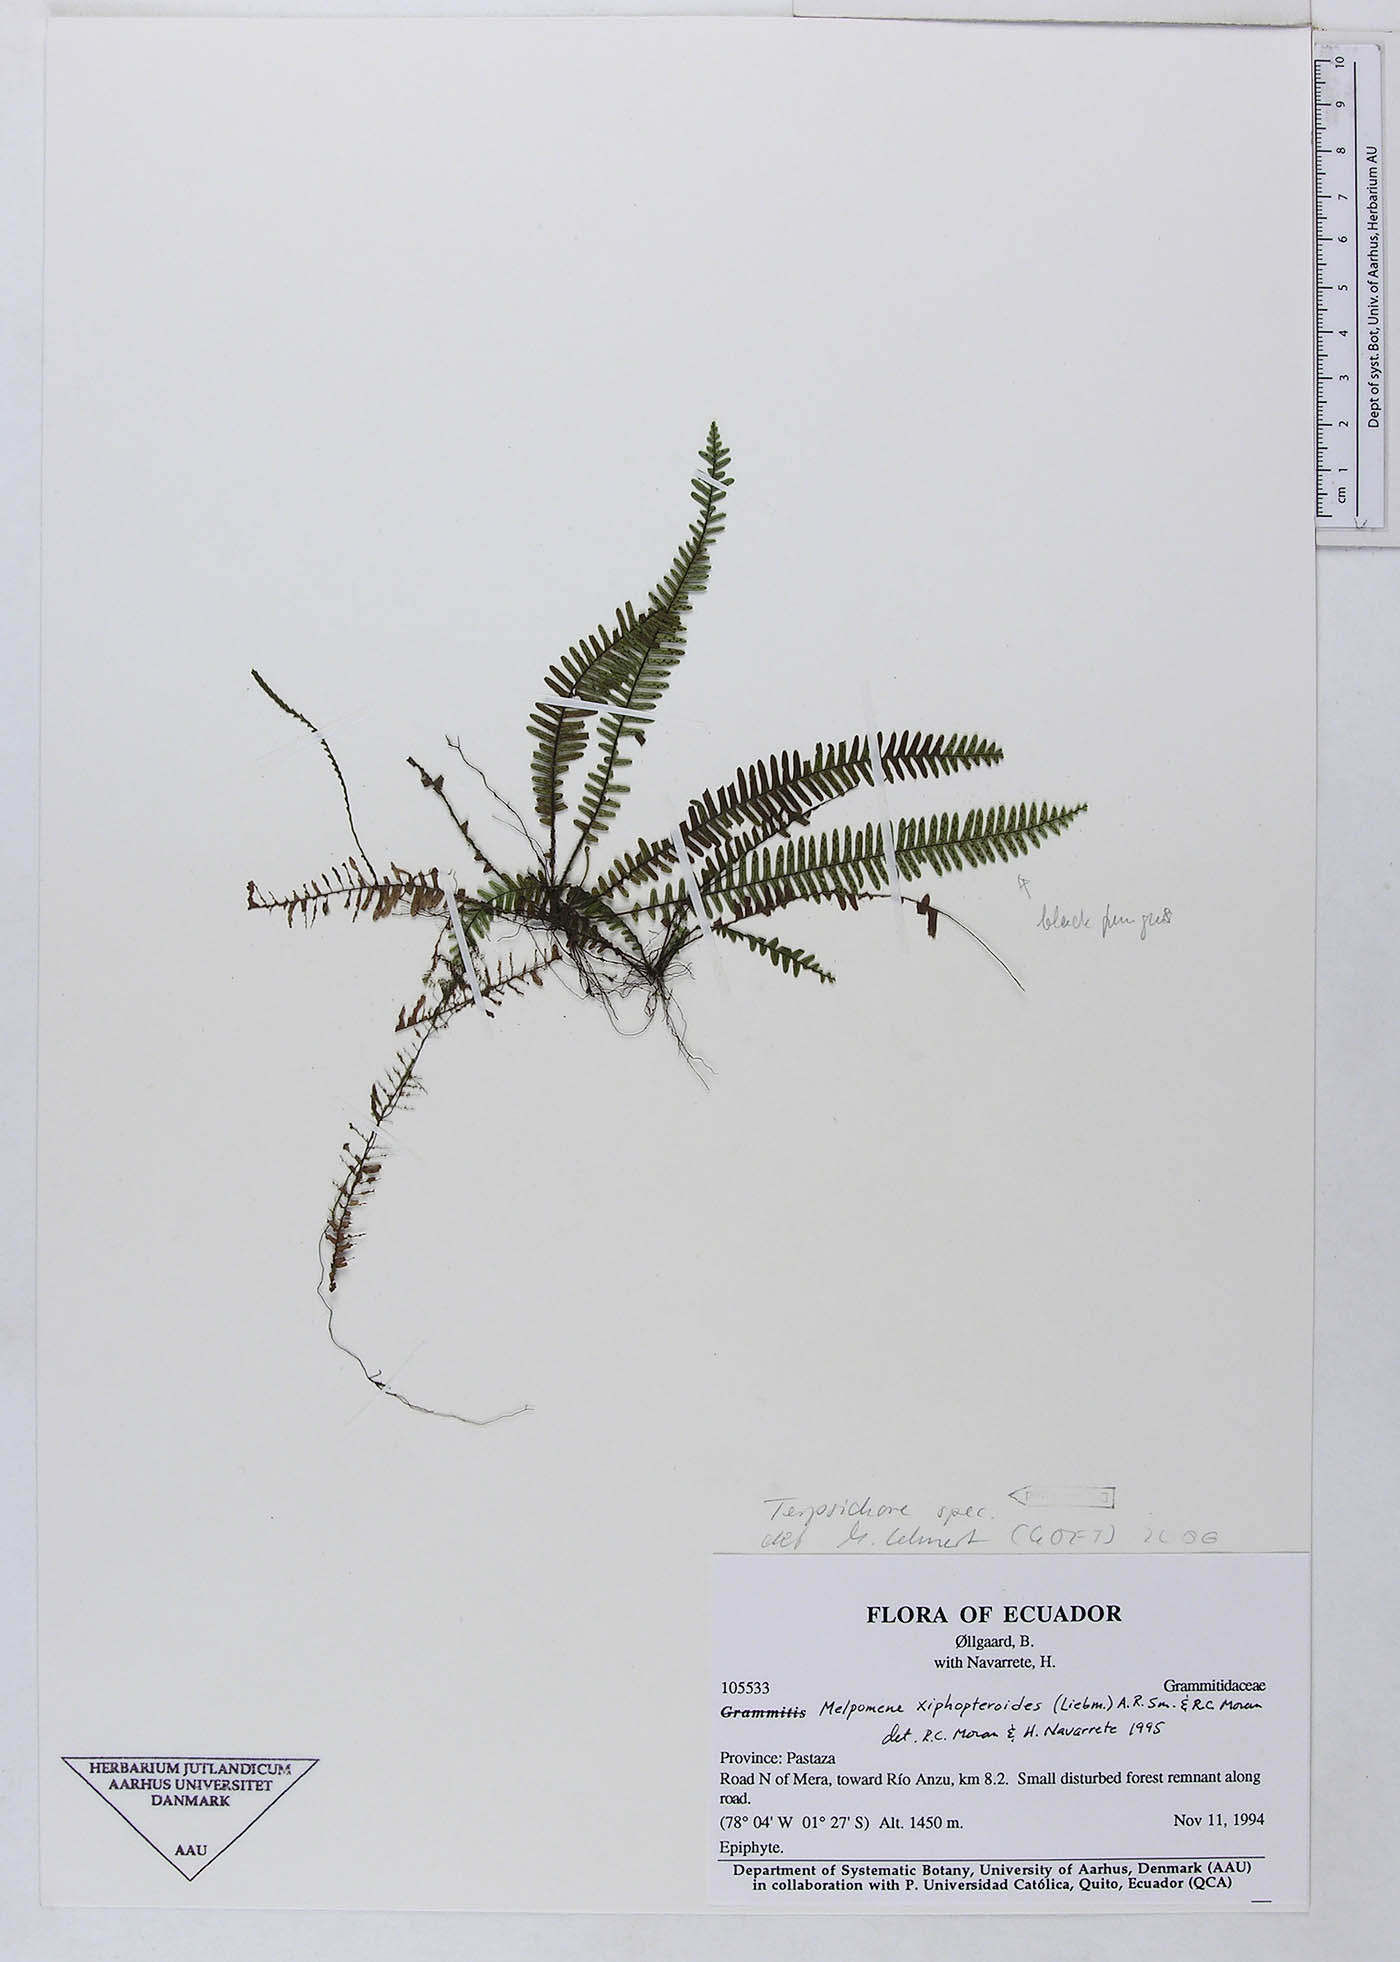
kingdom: Plantae
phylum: Tracheophyta
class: Polypodiopsida
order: Polypodiales
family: Polypodiaceae
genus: Terpsichore
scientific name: Terpsichore
